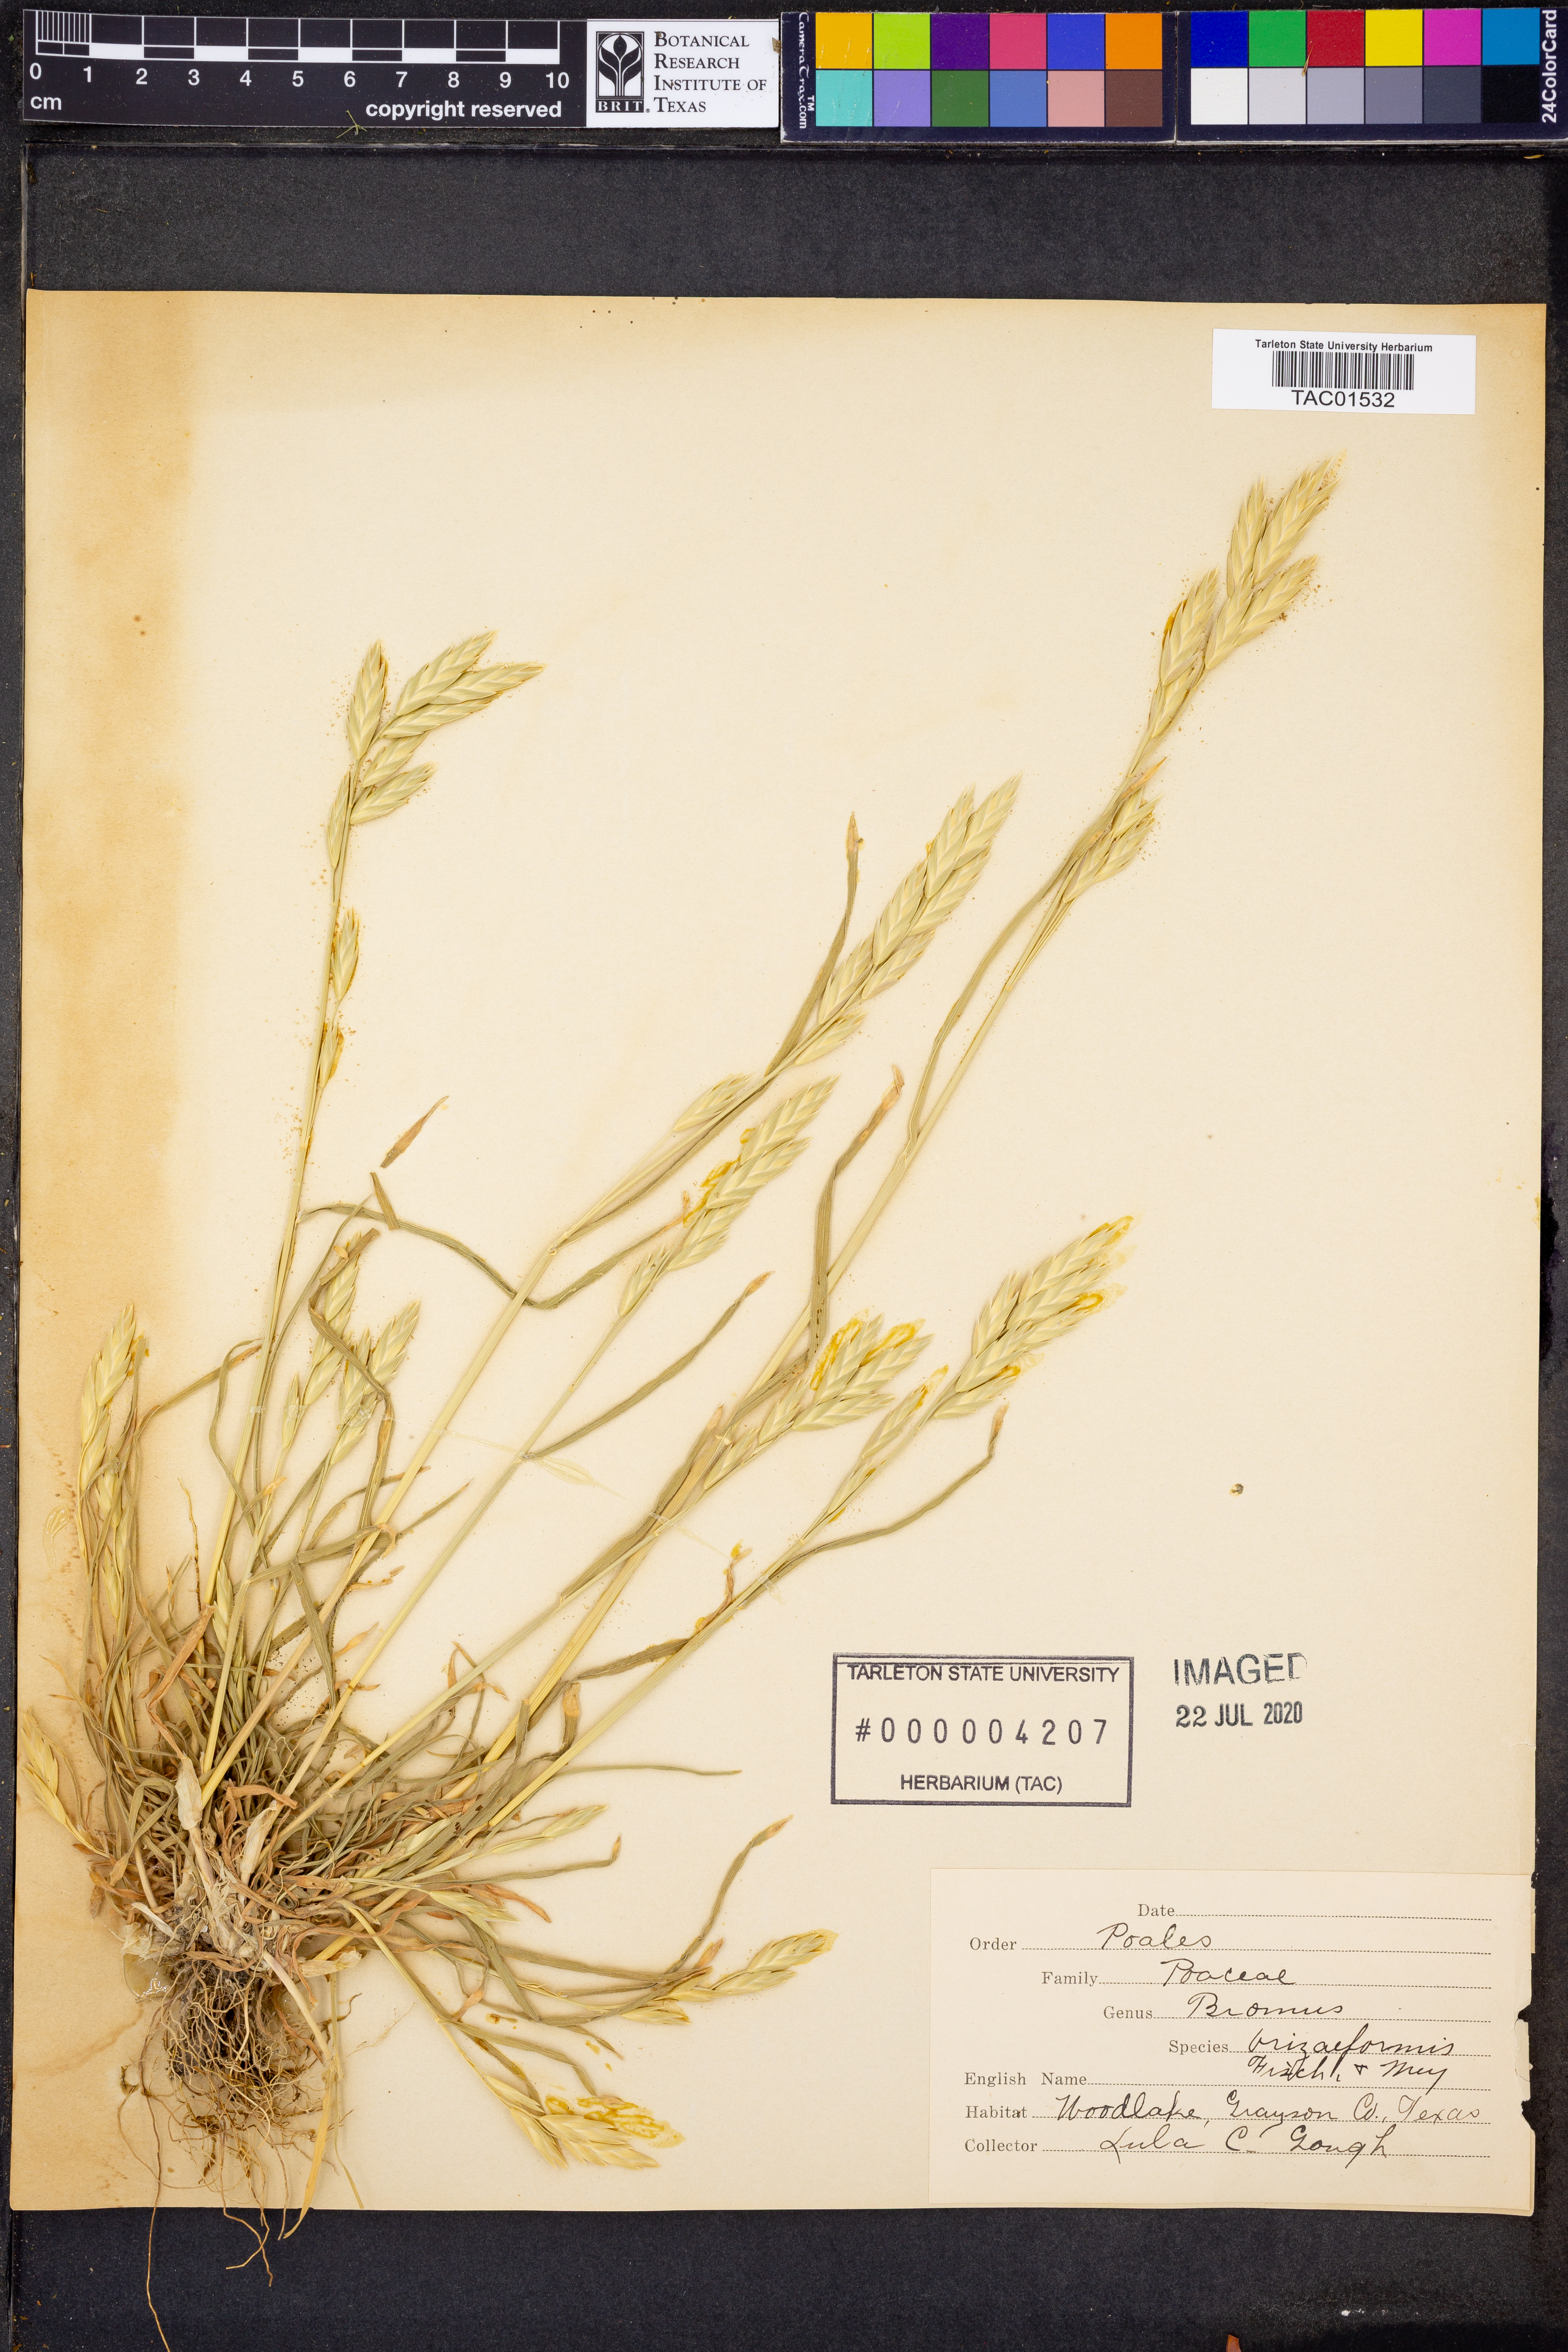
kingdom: Plantae
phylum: Tracheophyta
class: Liliopsida
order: Poales
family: Poaceae
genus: Bromus
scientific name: Bromus briziformis
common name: Rattlesnake brome
